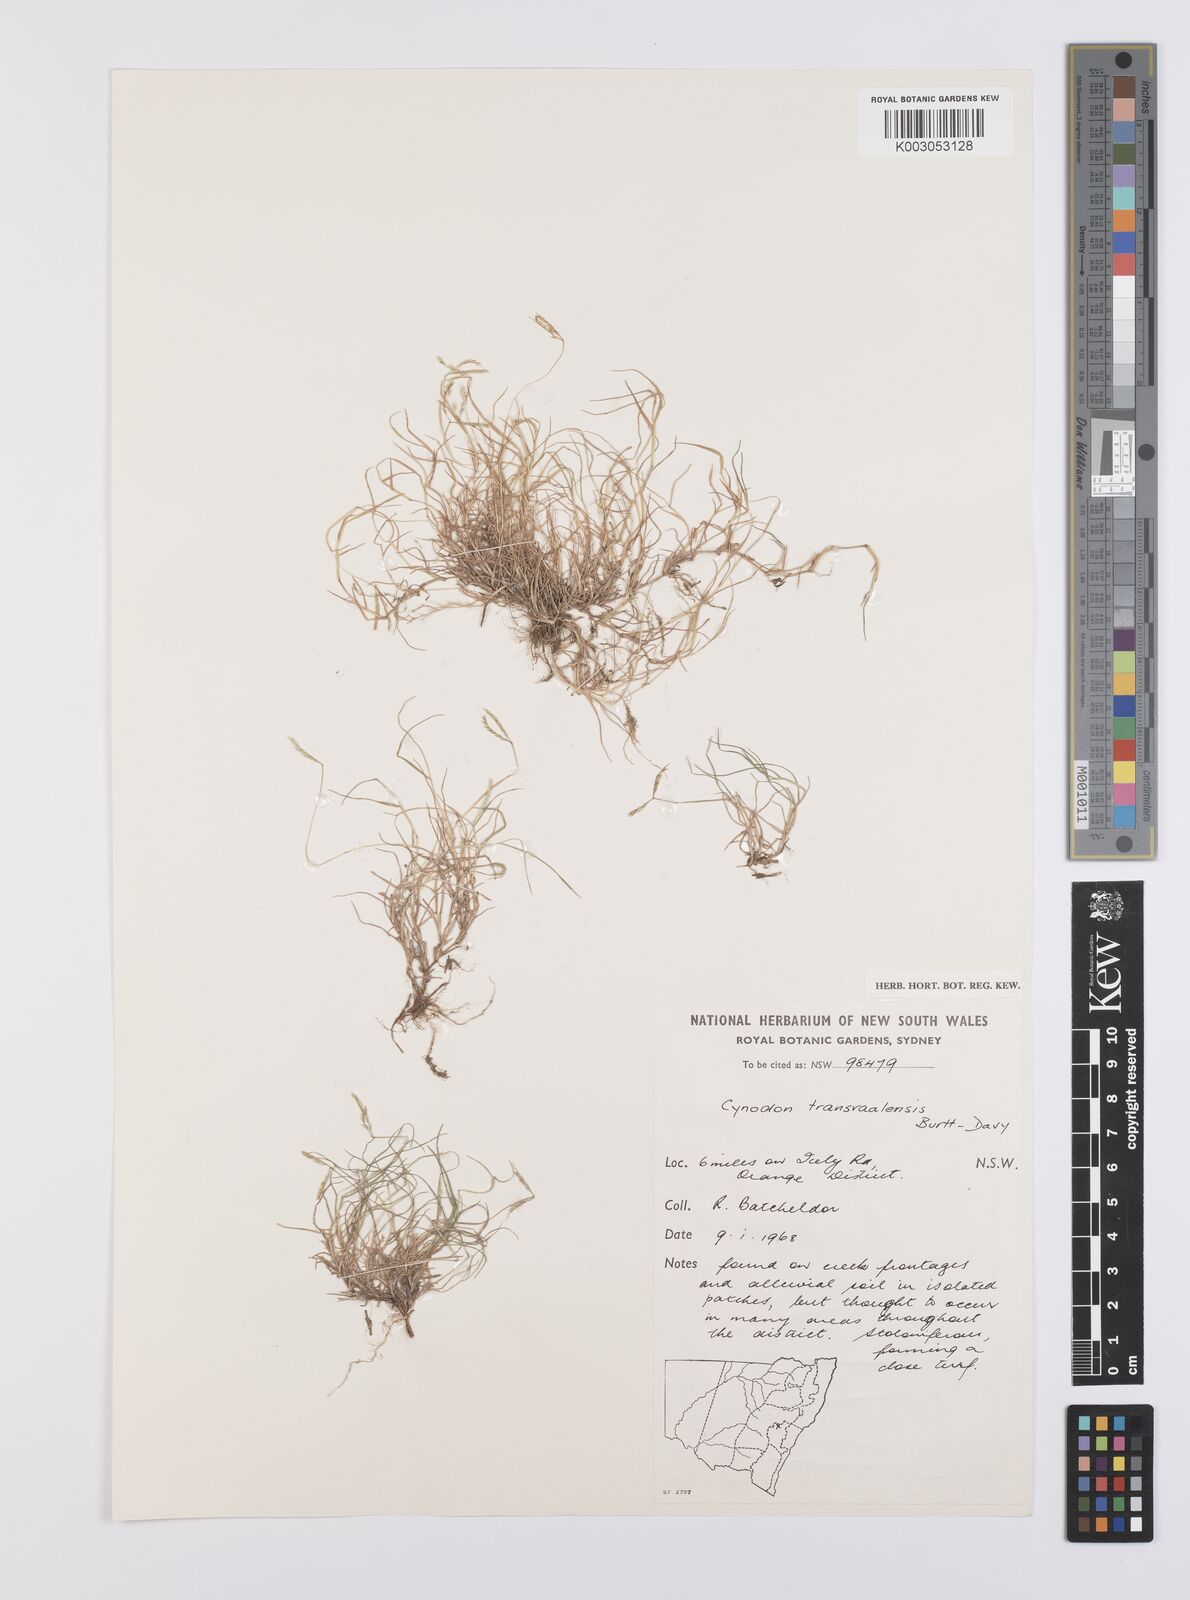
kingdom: Plantae
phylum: Tracheophyta
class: Liliopsida
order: Poales
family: Poaceae
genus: Cynodon
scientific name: Cynodon transvaalensis
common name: African bermuda grass
